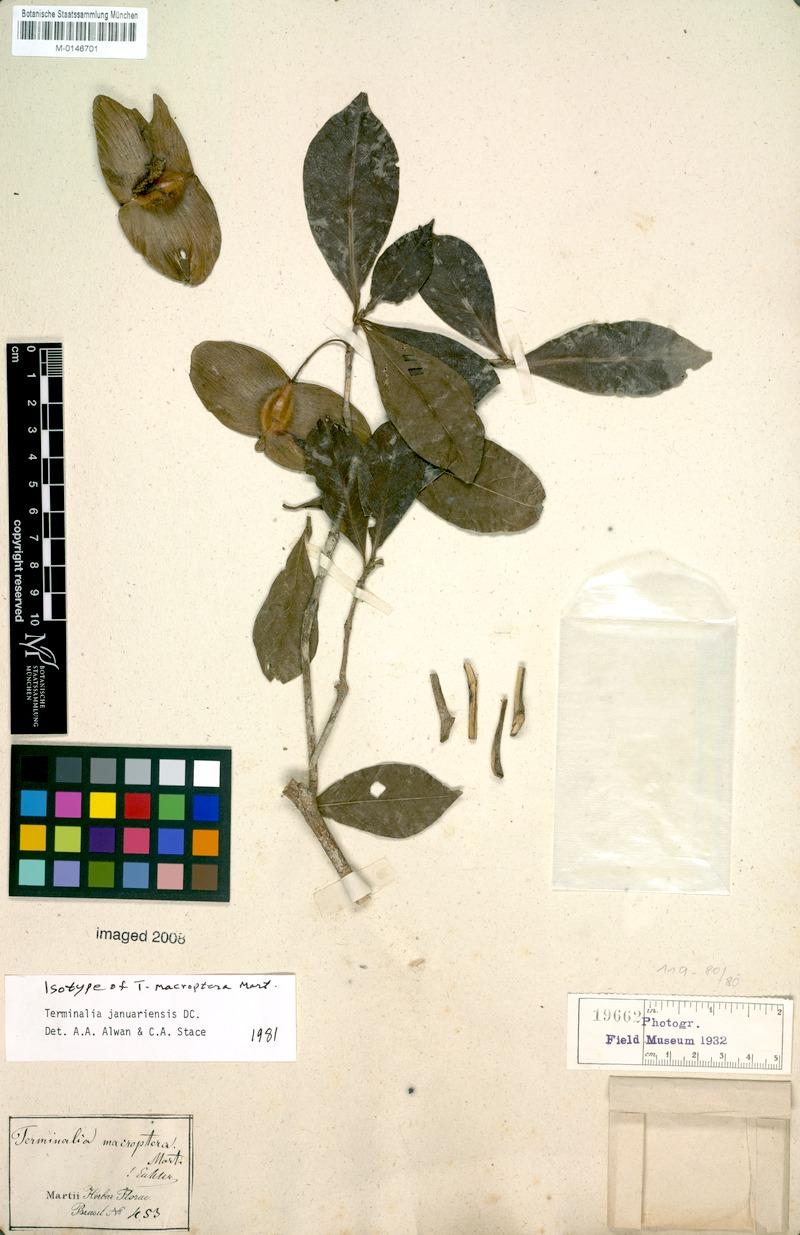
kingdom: Plantae
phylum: Tracheophyta
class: Magnoliopsida
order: Myrtales
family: Combretaceae
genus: Terminalia
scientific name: Terminalia januariensis
